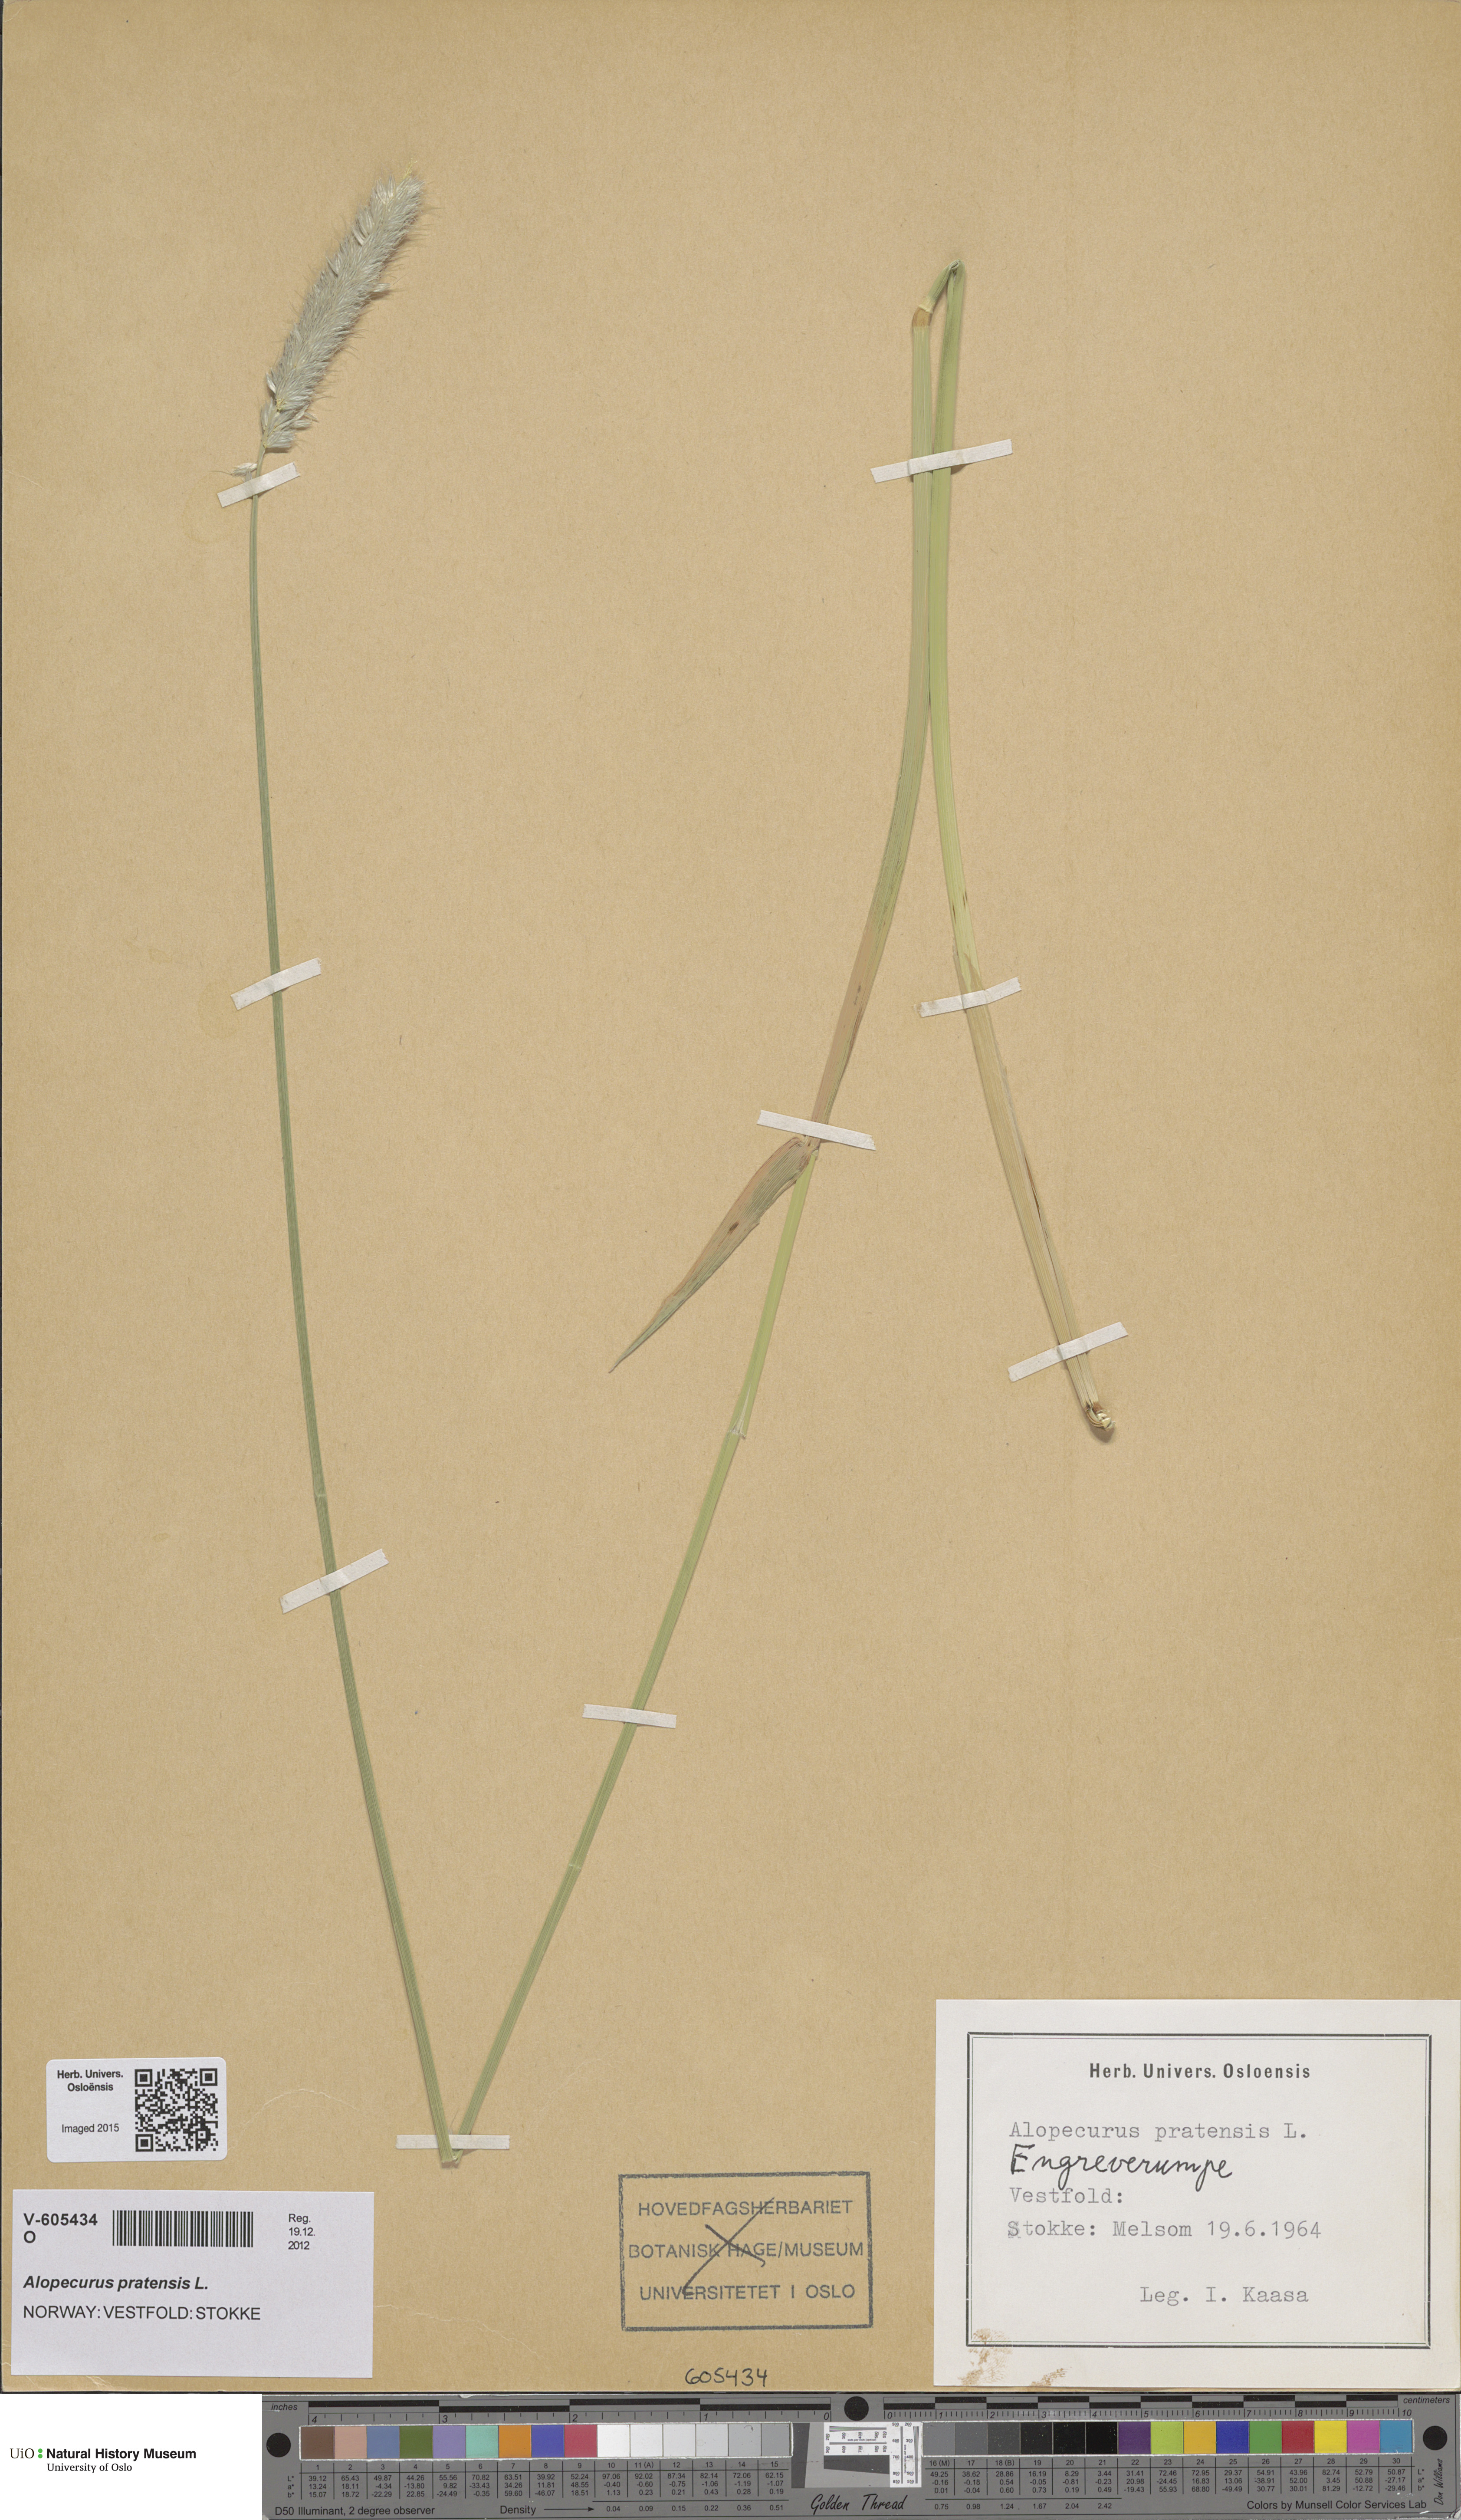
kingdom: Plantae
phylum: Tracheophyta
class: Liliopsida
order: Poales
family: Poaceae
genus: Alopecurus
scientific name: Alopecurus pratensis
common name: Meadow foxtail
